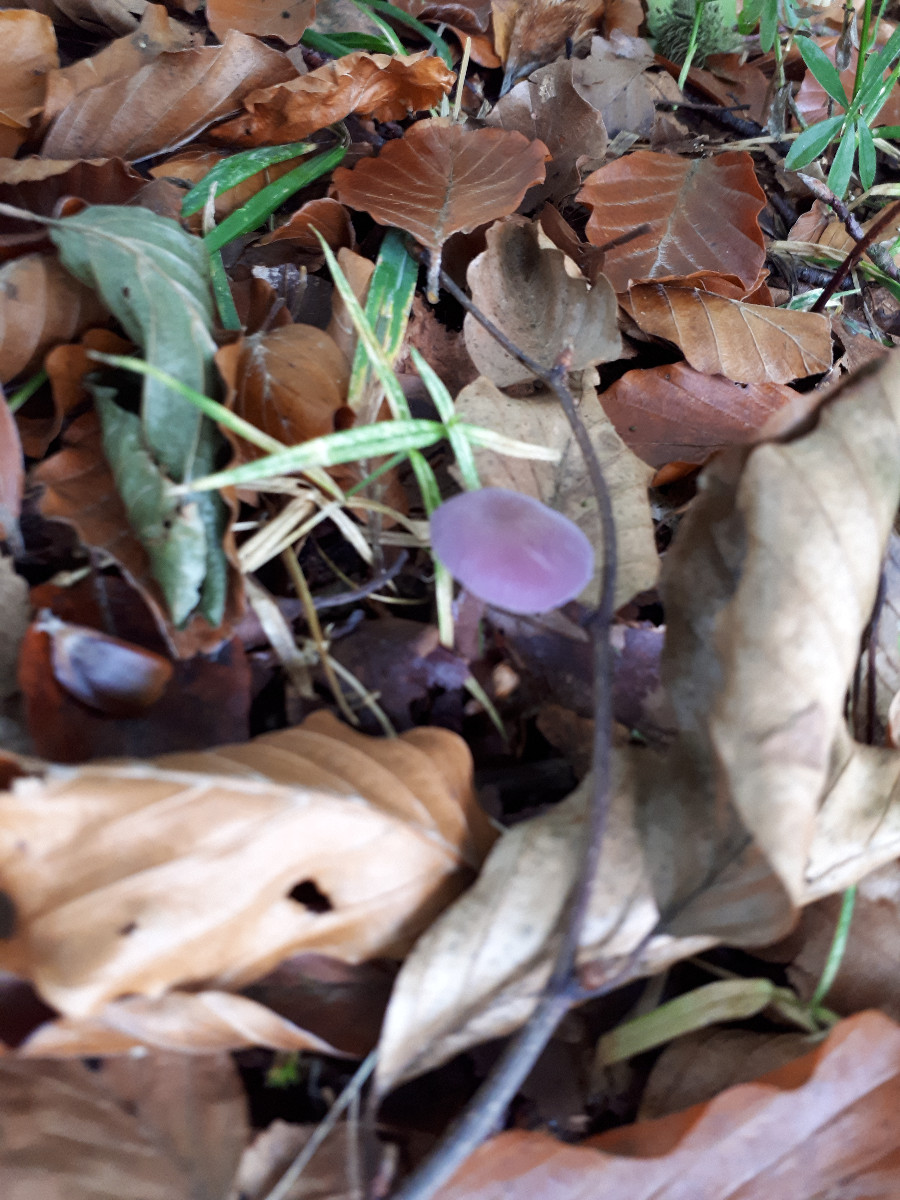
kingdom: Fungi
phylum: Basidiomycota
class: Agaricomycetes
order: Agaricales
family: Hydnangiaceae
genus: Laccaria
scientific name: Laccaria amethystina
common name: violet ametysthat
